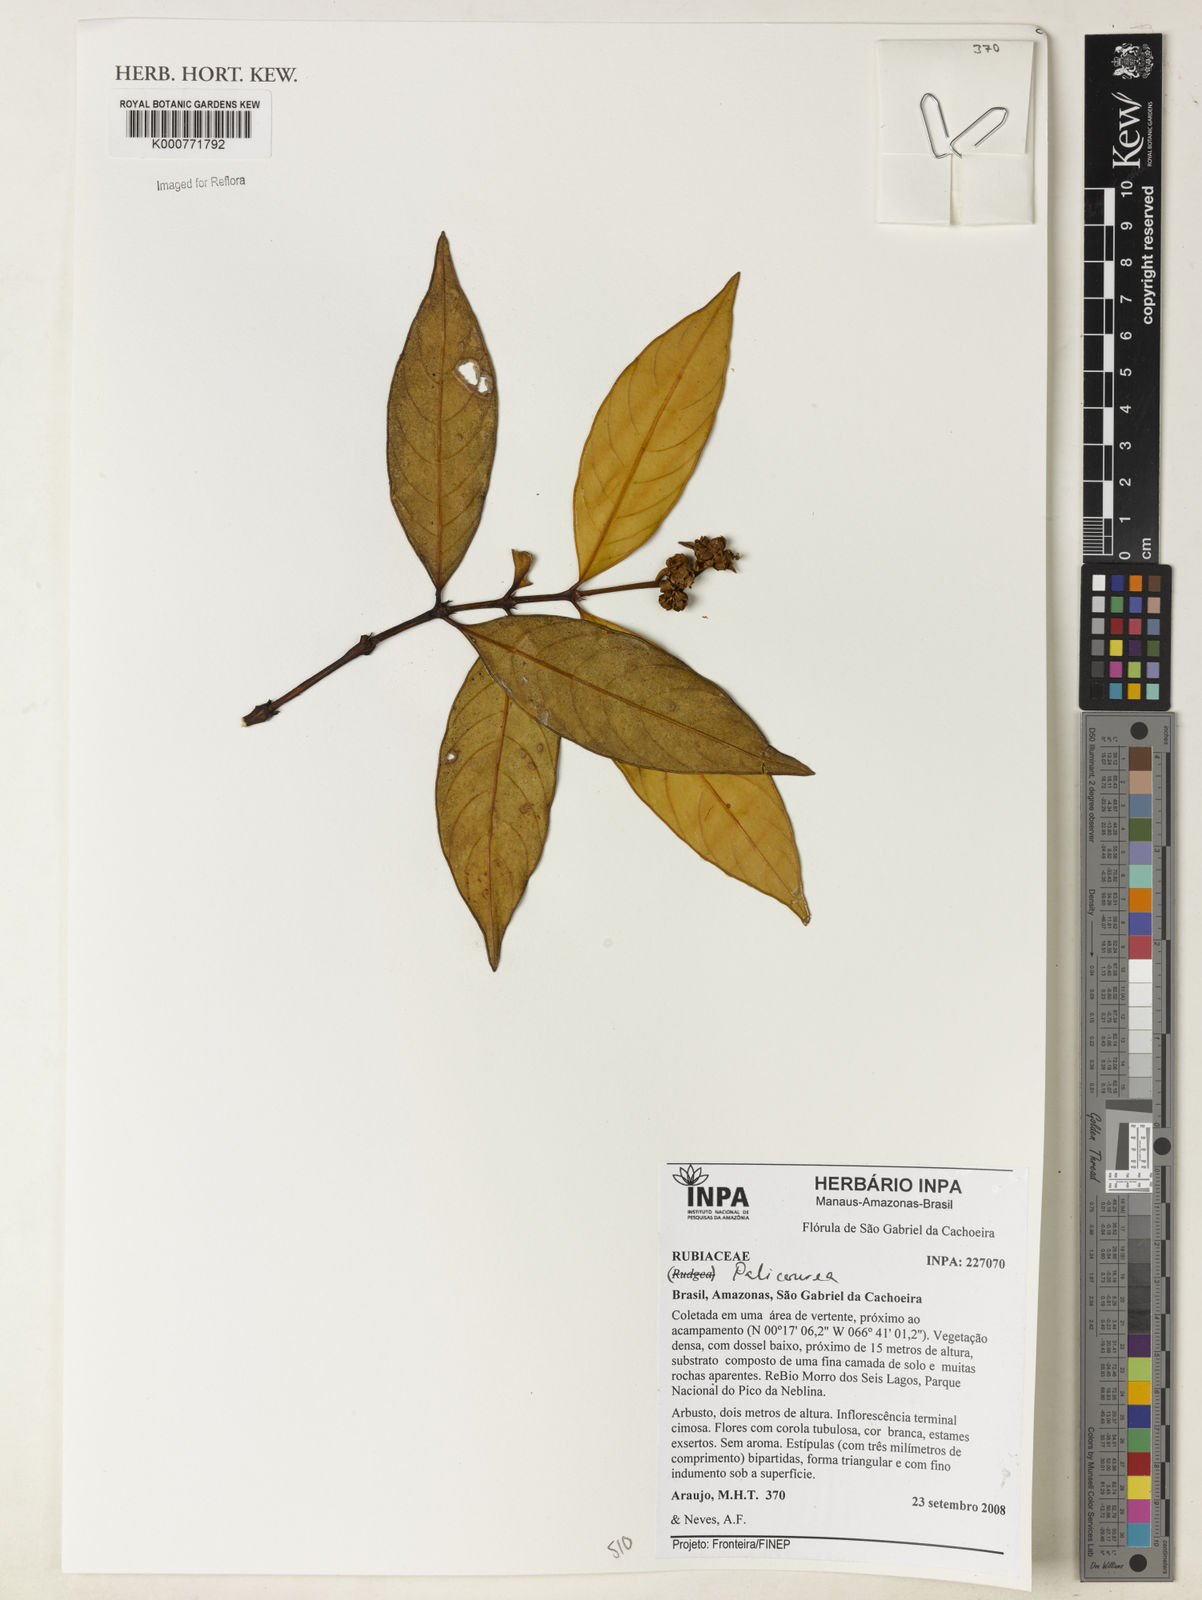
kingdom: Plantae
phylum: Tracheophyta
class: Magnoliopsida
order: Gentianales
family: Rubiaceae
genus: Palicourea
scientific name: Palicourea
